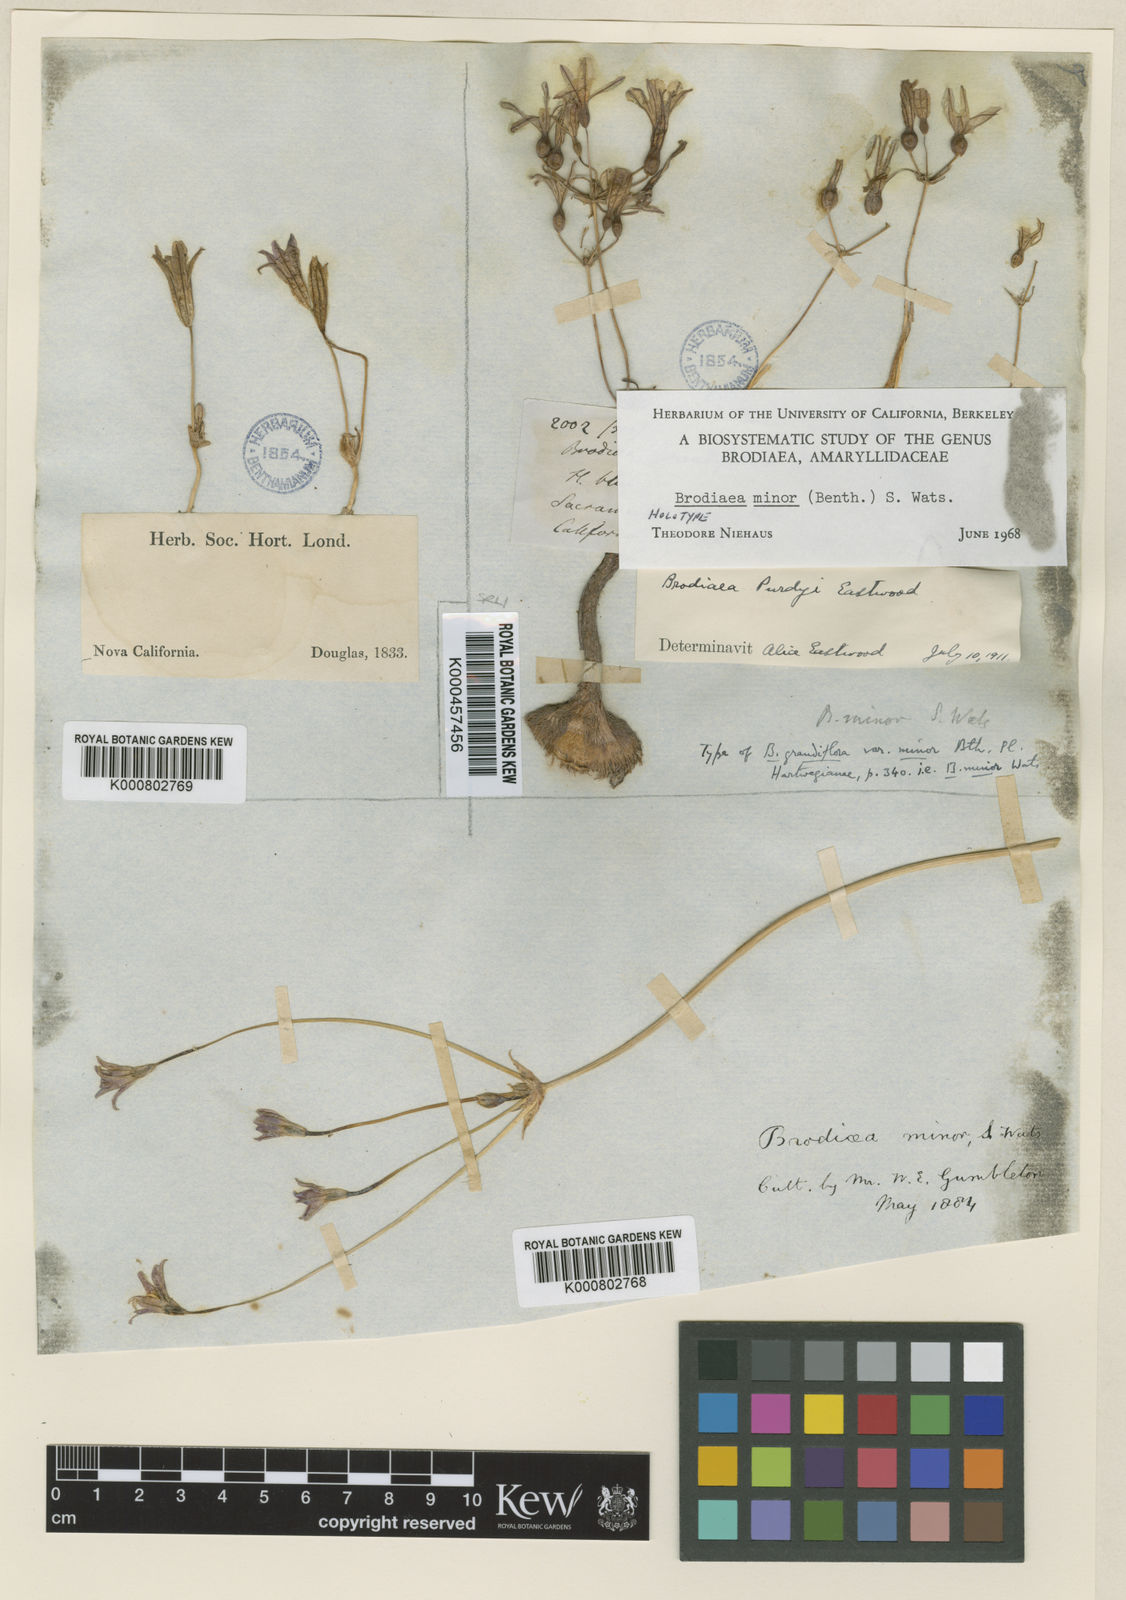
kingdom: Plantae
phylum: Tracheophyta
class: Liliopsida
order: Asparagales
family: Asparagaceae
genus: Brodiaea
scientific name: Brodiaea minor
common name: Dwarf brodiaea
